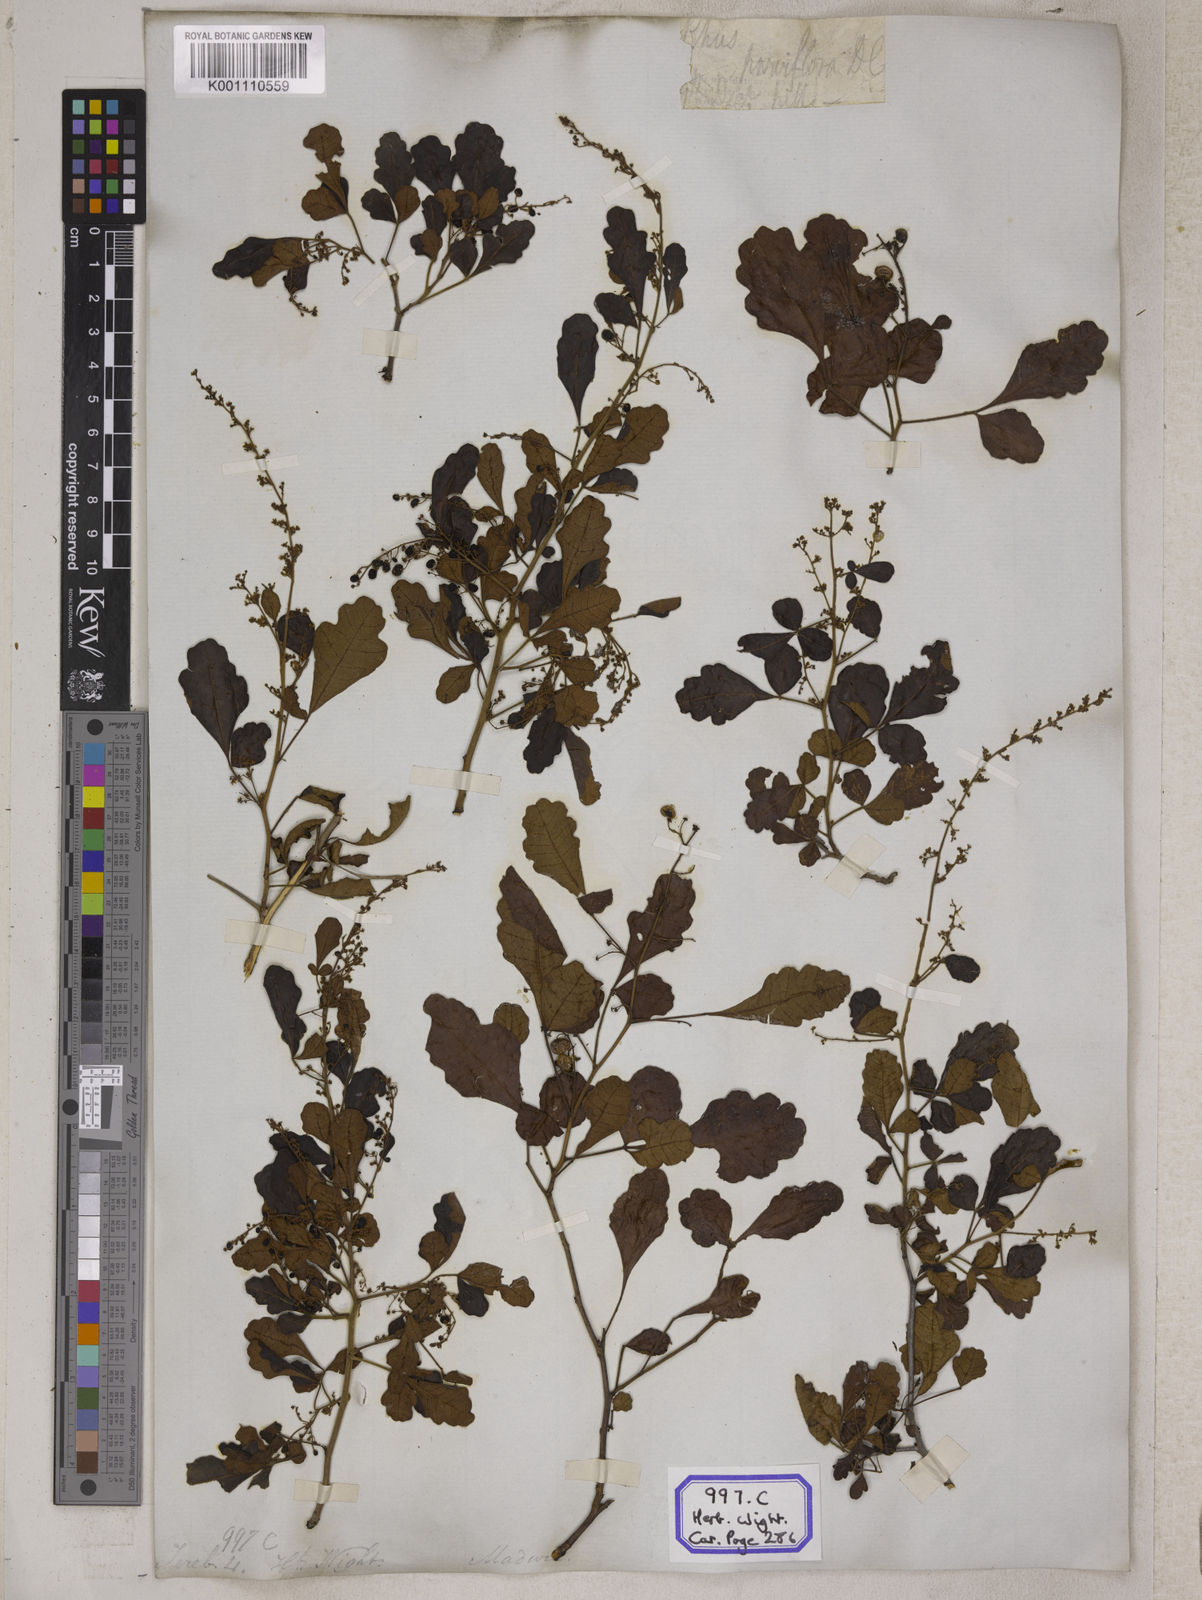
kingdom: Plantae
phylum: Tracheophyta
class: Magnoliopsida
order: Sapindales
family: Anacardiaceae
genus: Rhus
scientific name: Rhus
